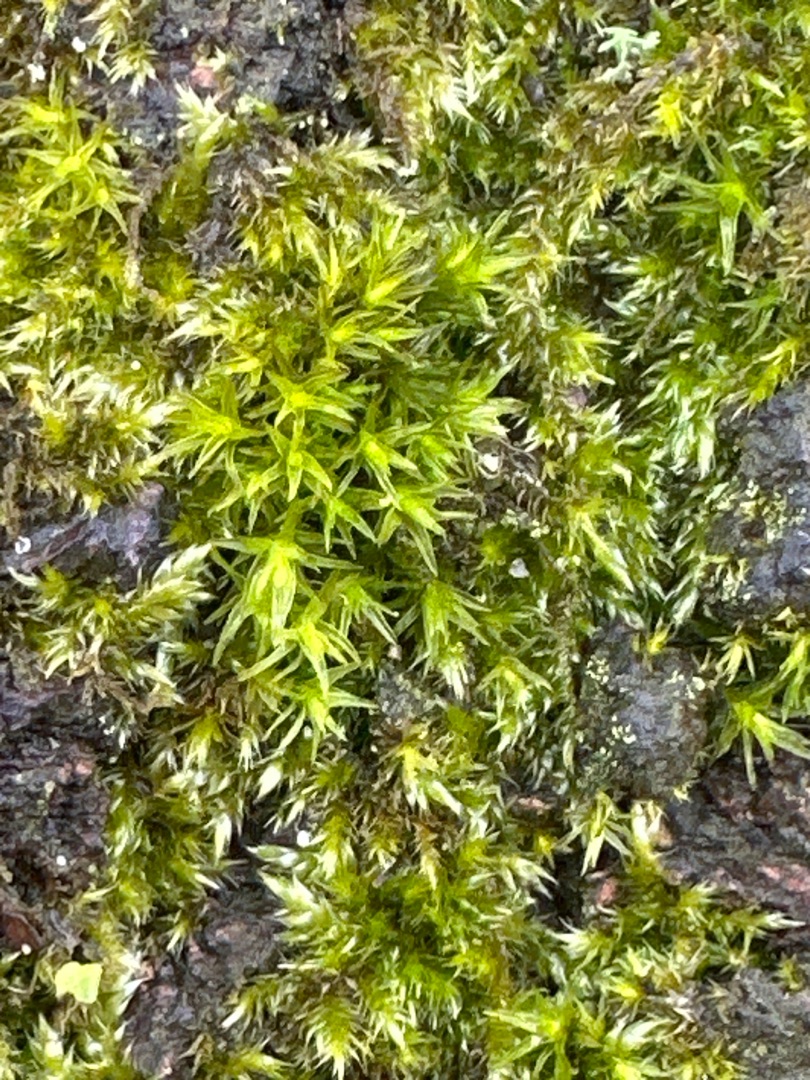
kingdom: Plantae
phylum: Bryophyta
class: Bryopsida
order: Orthotrichales
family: Orthotrichaceae
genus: Orthotrichum
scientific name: Orthotrichum
